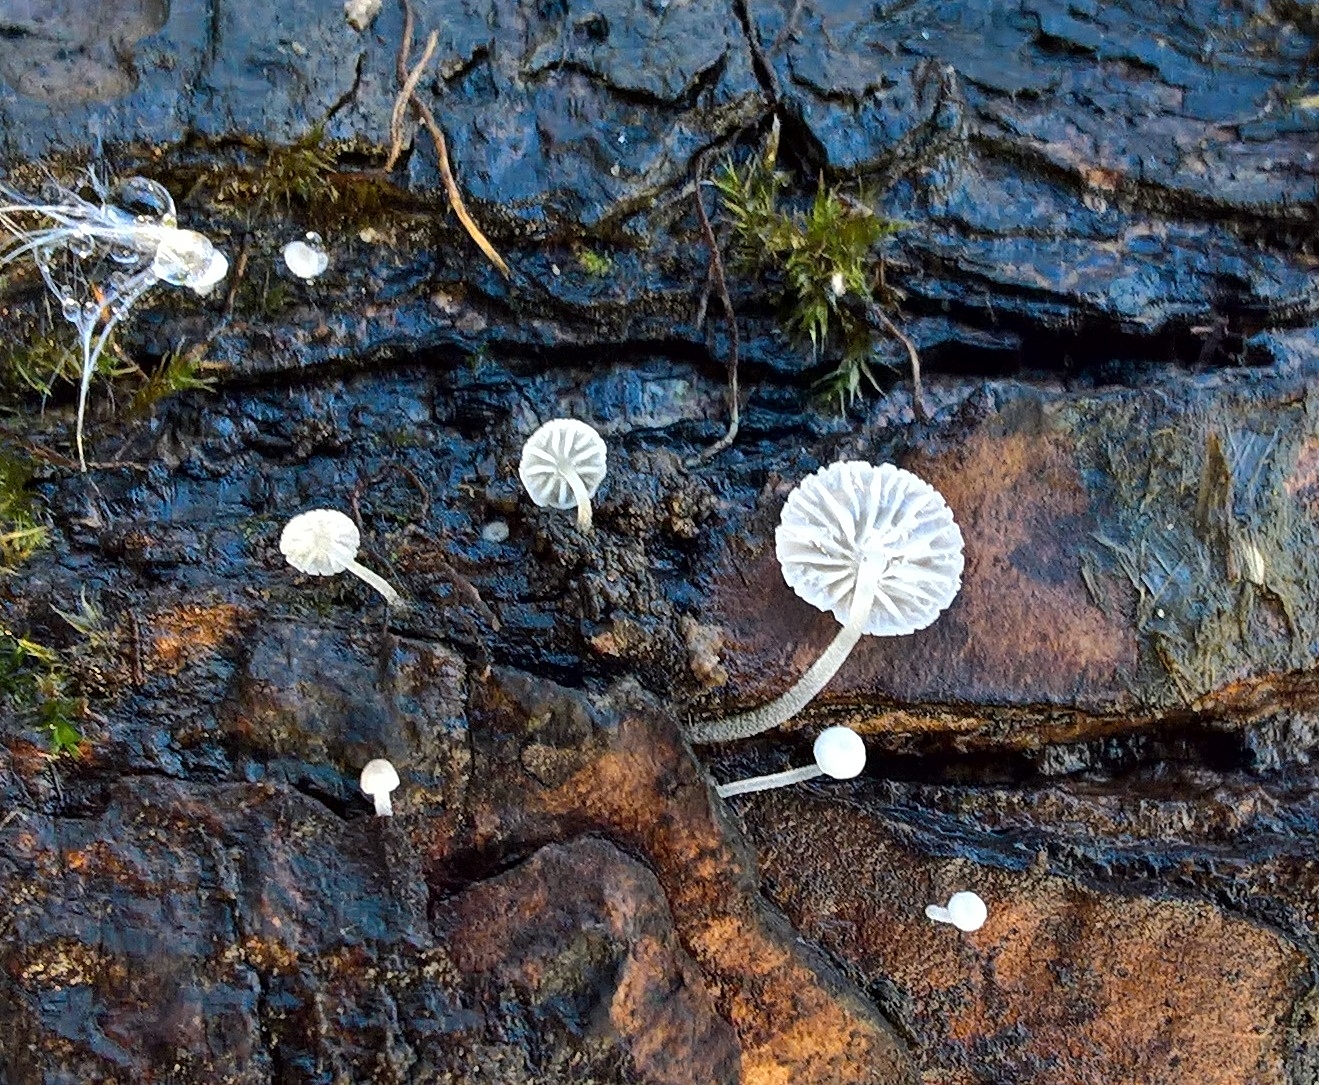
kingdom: Fungi
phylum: Basidiomycota
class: Agaricomycetes
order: Agaricales
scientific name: Agaricales
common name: champignonordenen
